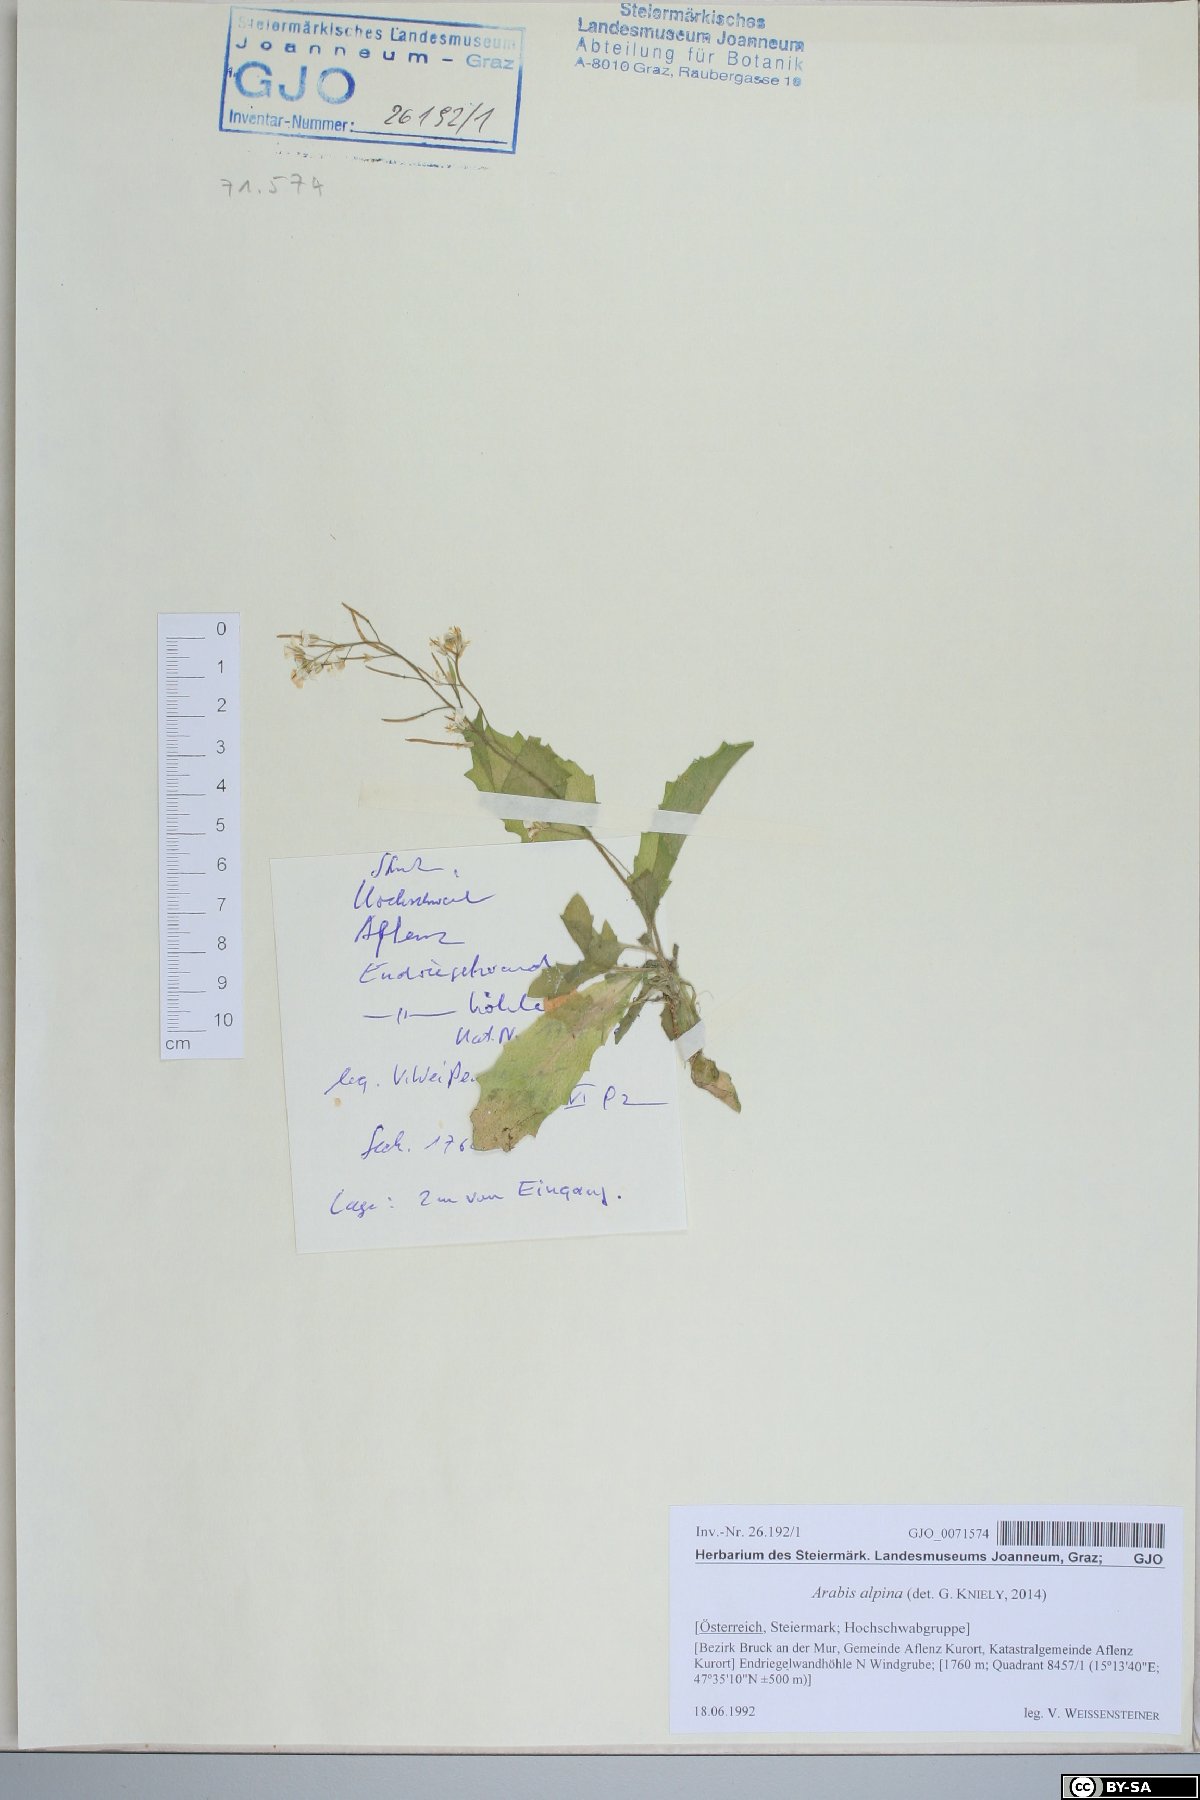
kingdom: Plantae
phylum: Tracheophyta
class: Magnoliopsida
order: Brassicales
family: Brassicaceae
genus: Arabis
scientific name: Arabis alpina
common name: Alpine rock-cress
